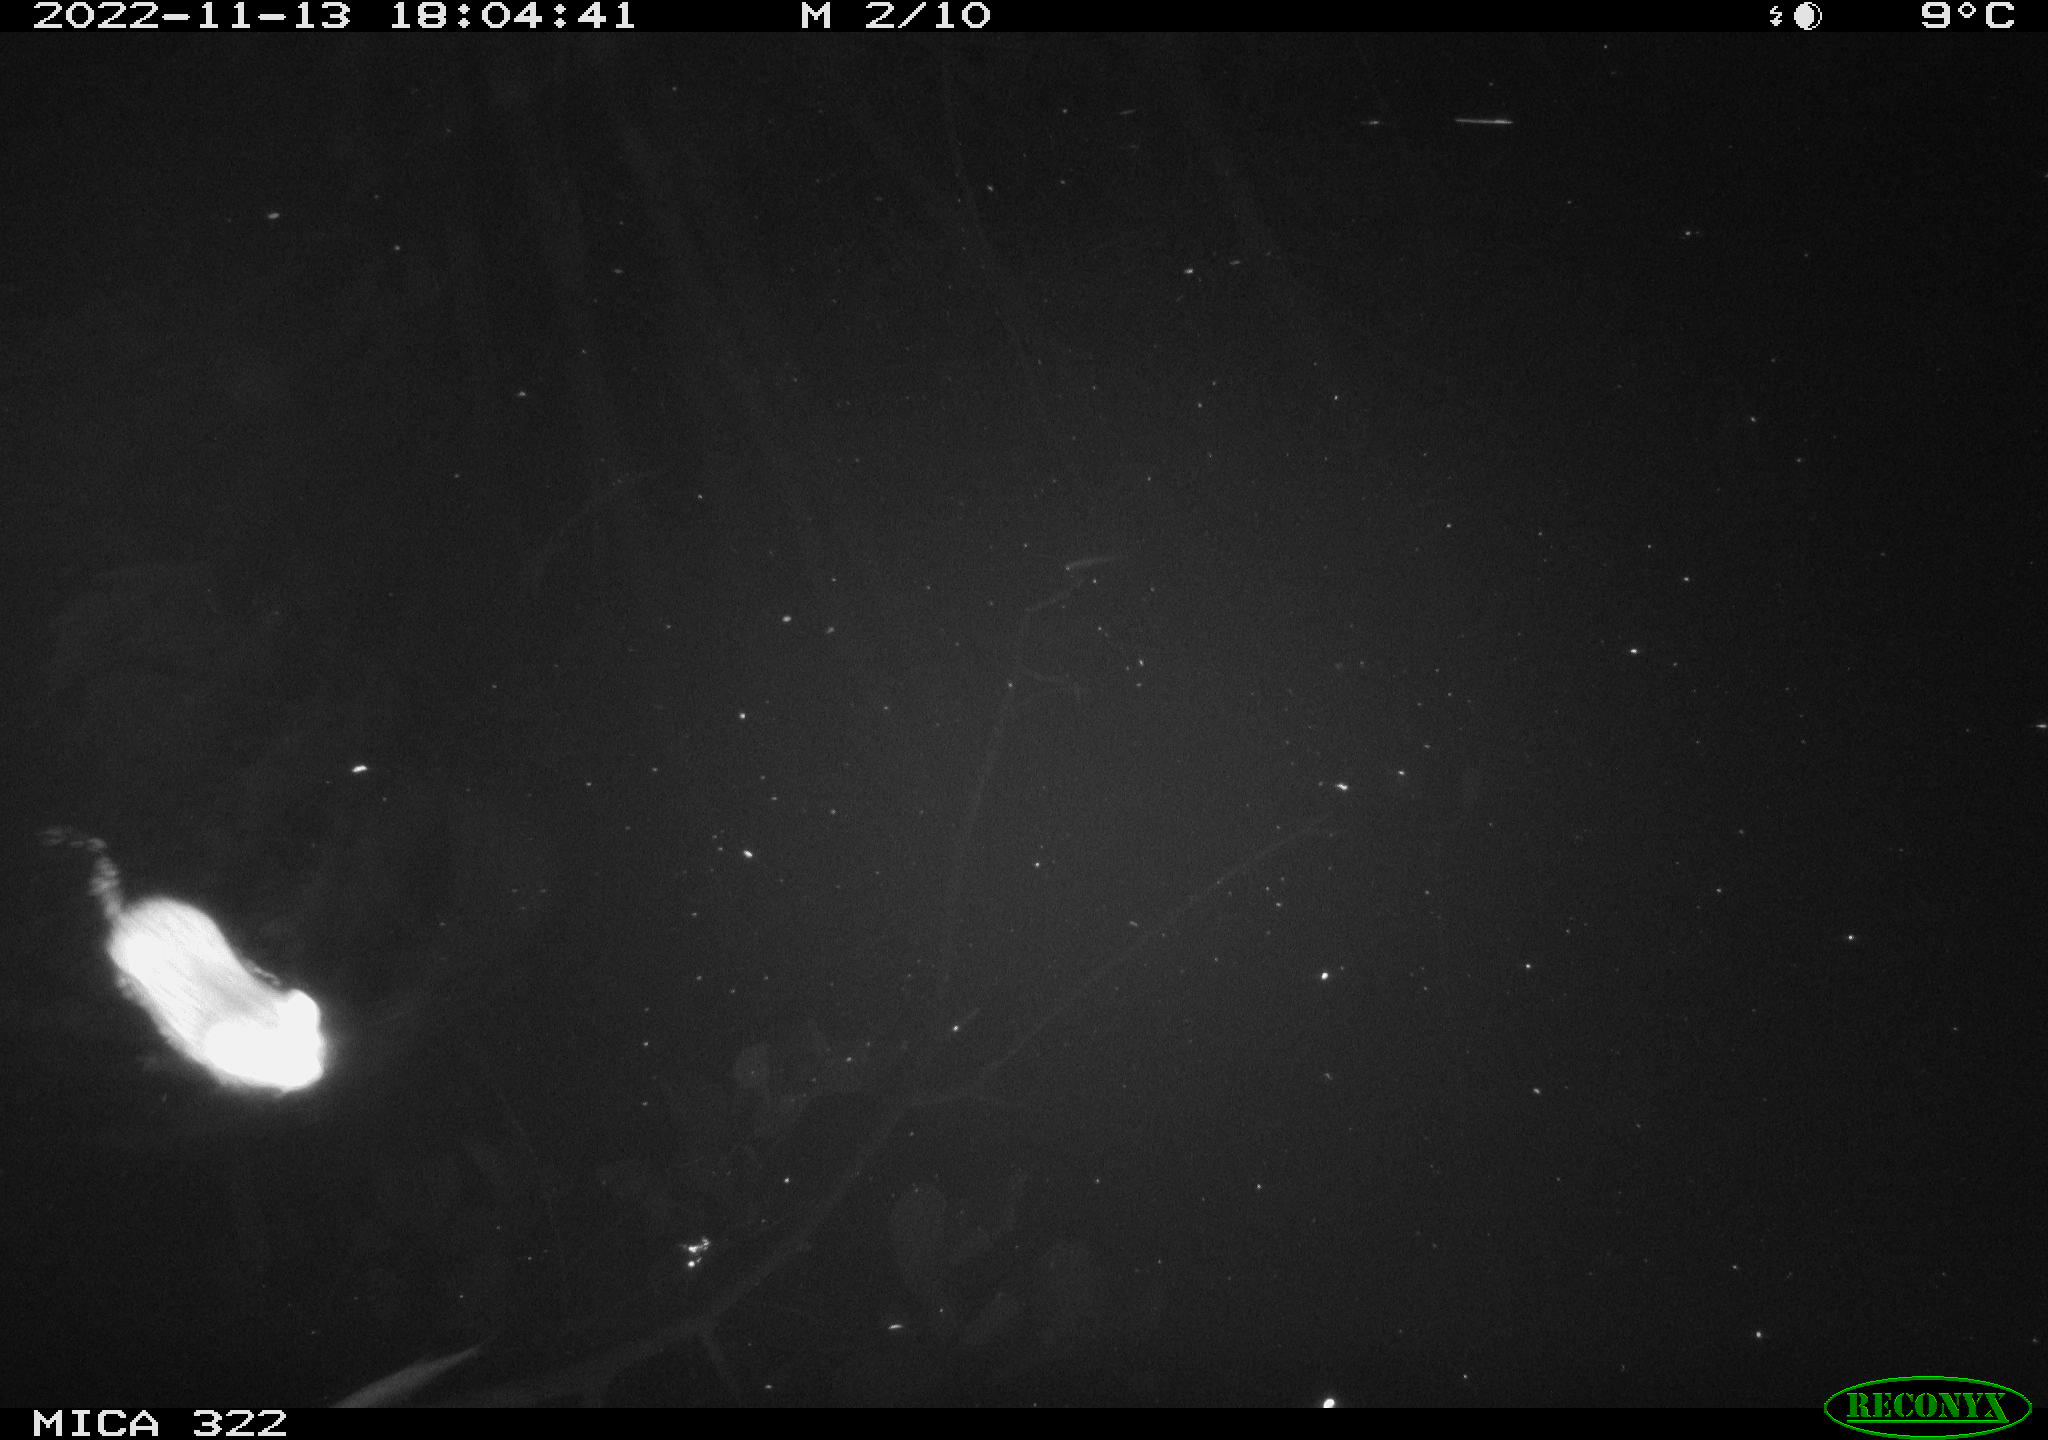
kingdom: Animalia
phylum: Chordata
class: Mammalia
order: Rodentia
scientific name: Rodentia
